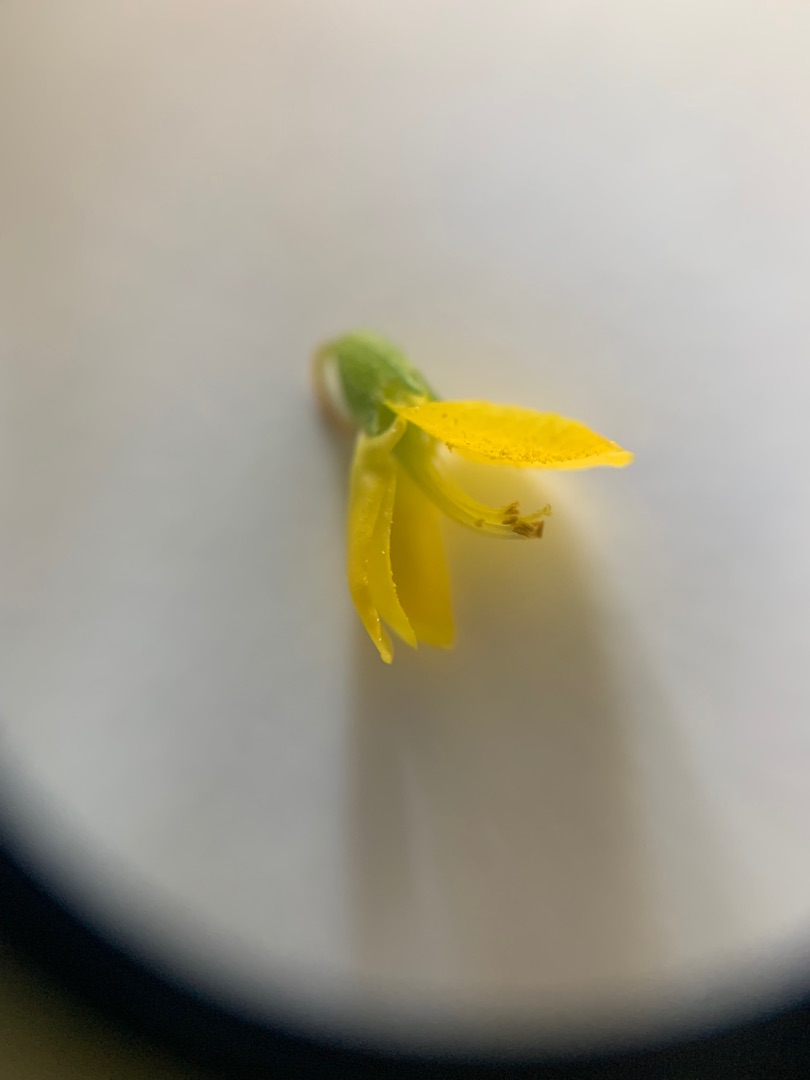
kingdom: Plantae
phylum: Tracheophyta
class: Magnoliopsida
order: Fabales
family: Fabaceae
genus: Melilotus
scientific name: Melilotus altissimus
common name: Høj stenkløver
